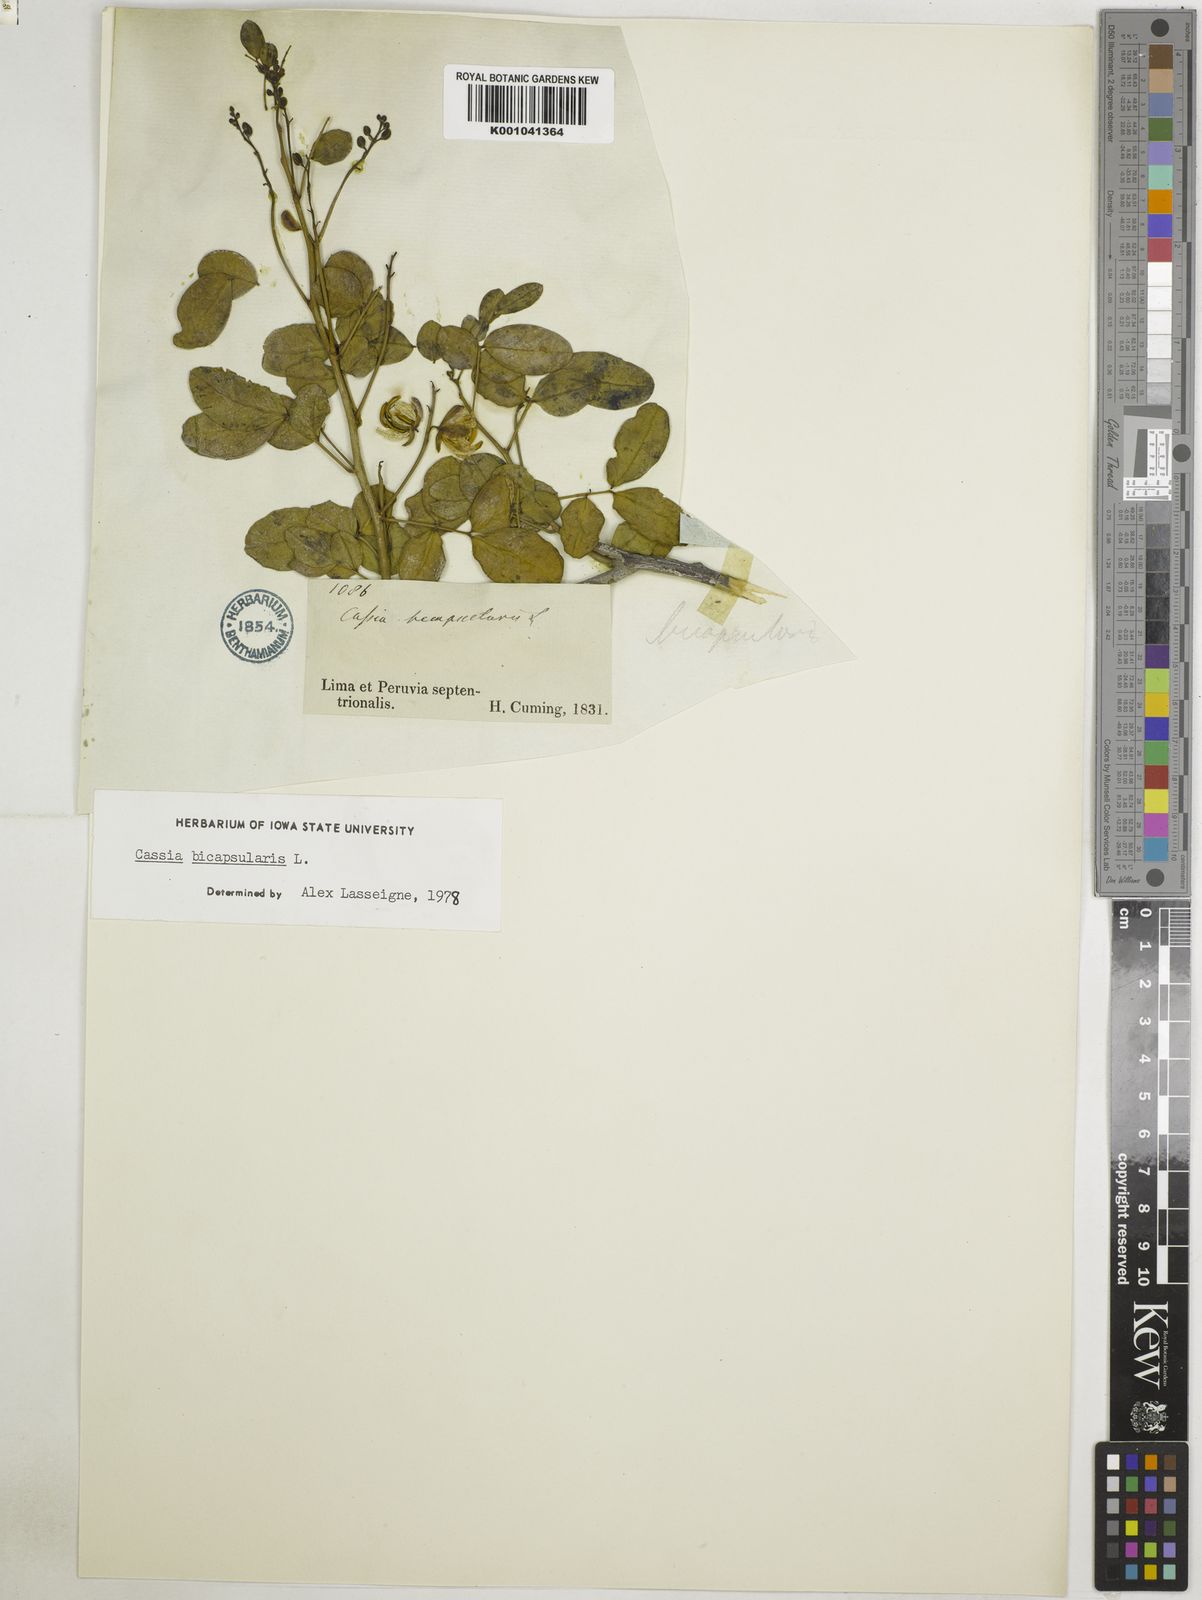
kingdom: Plantae
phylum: Tracheophyta
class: Magnoliopsida
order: Fabales
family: Fabaceae
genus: Senna
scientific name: Senna bicapsularis
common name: Christmasbush
